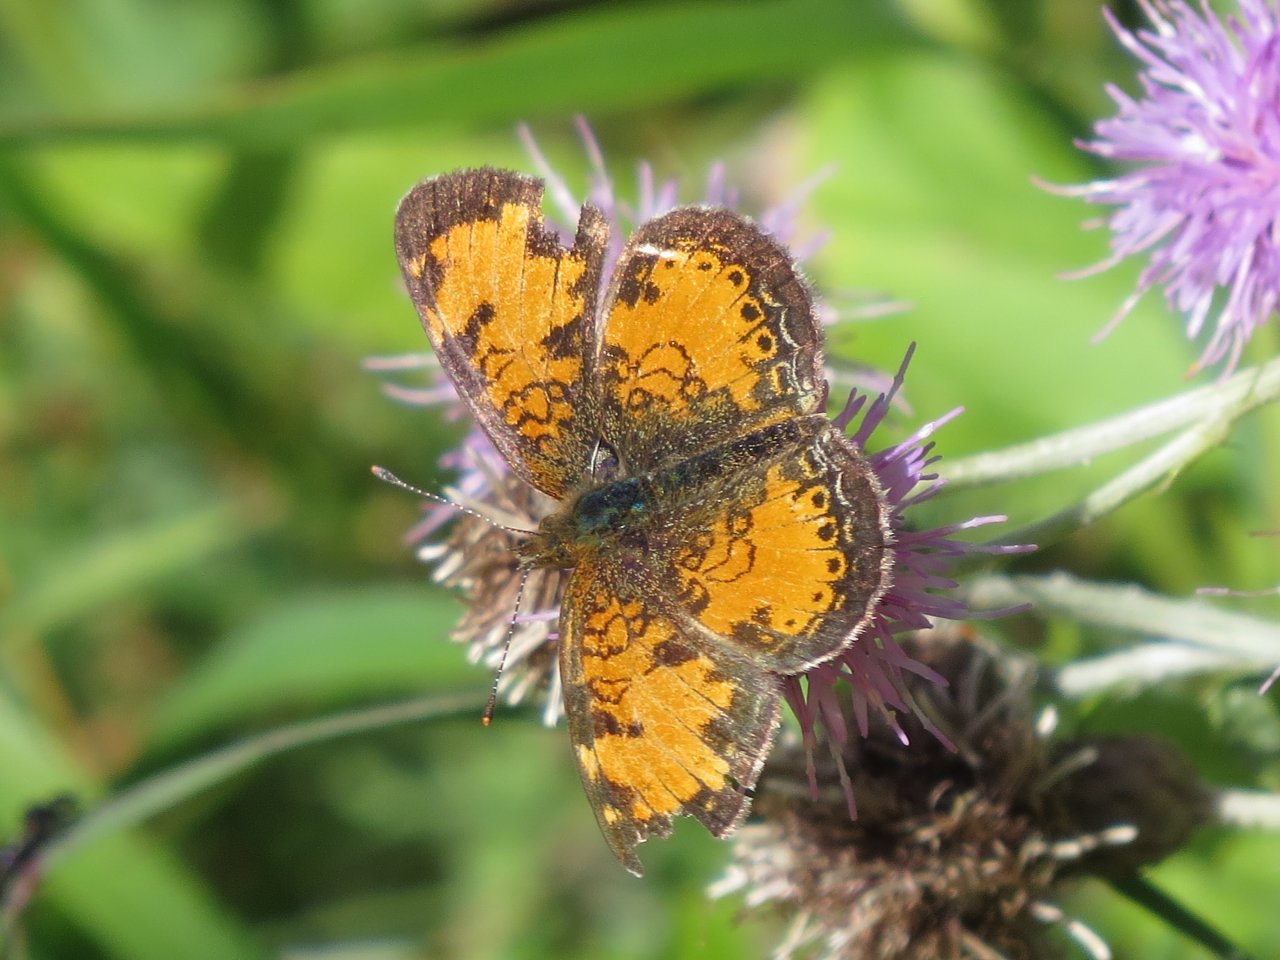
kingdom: Animalia
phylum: Arthropoda
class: Insecta
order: Lepidoptera
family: Nymphalidae
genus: Phyciodes
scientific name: Phyciodes tharos
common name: Northern Crescent
